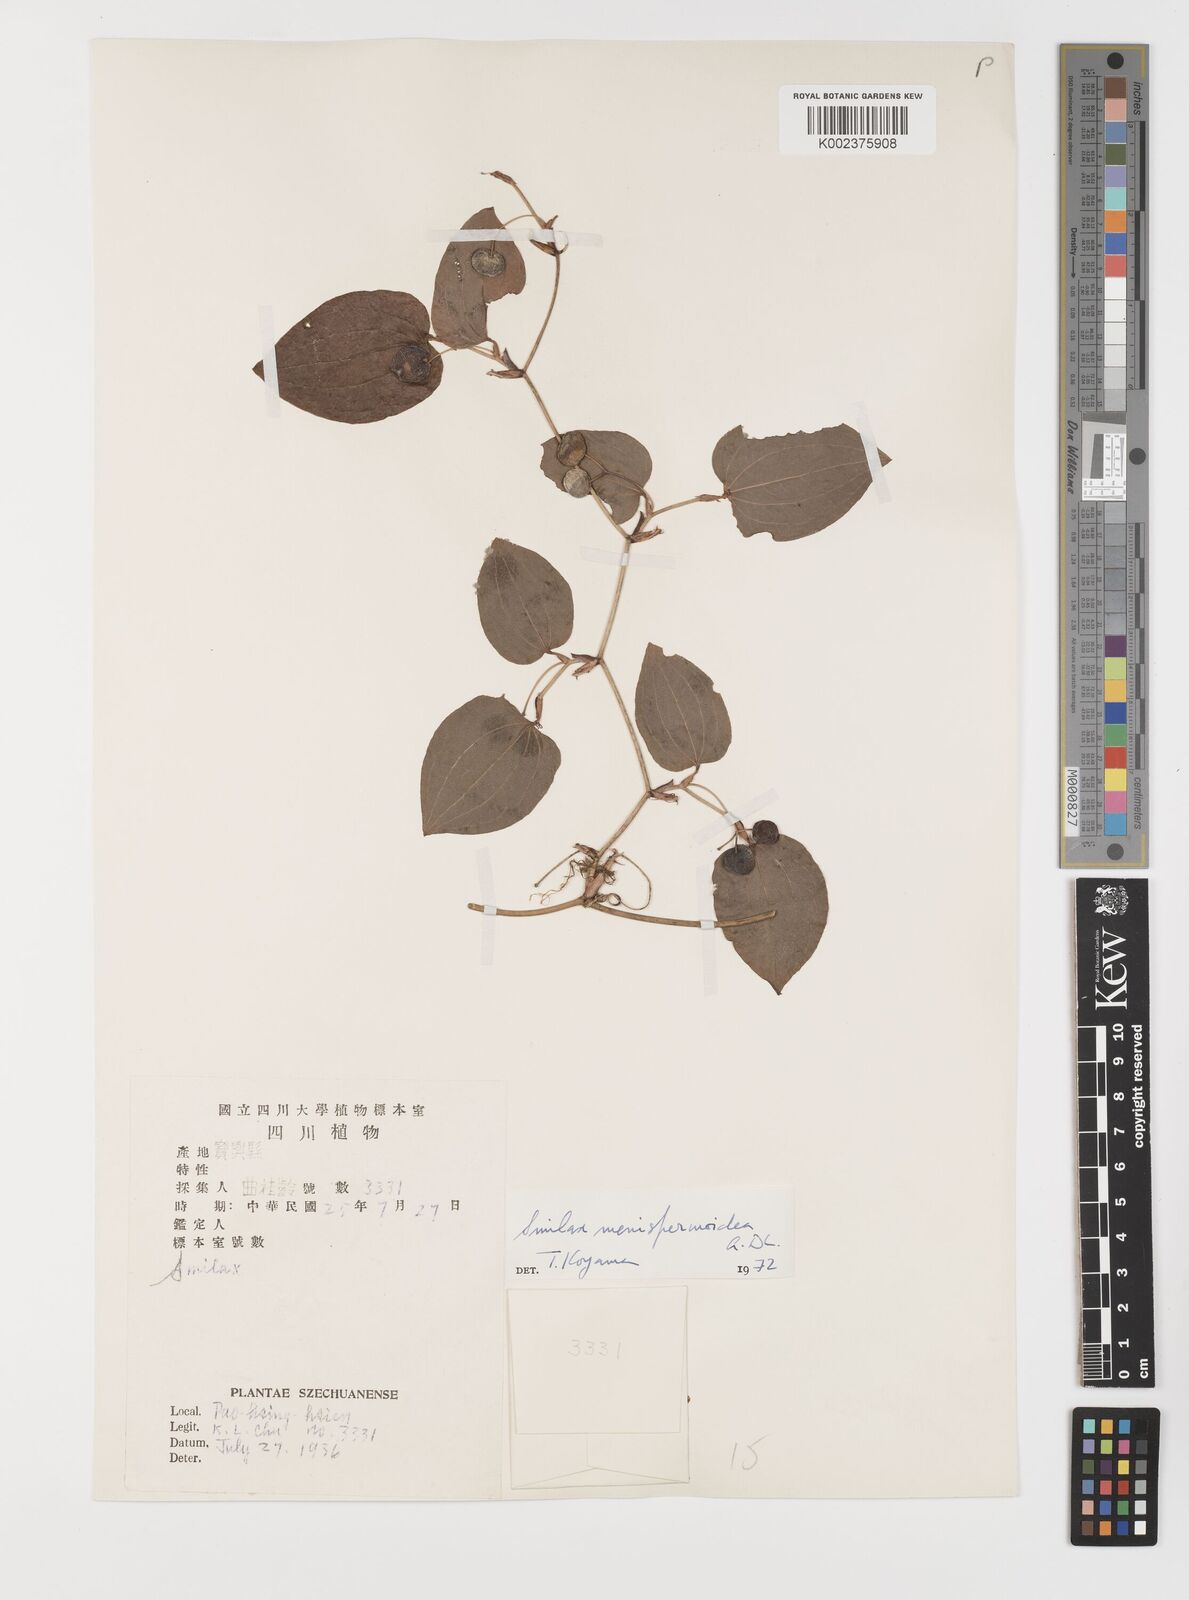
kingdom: Plantae
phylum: Tracheophyta
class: Liliopsida
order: Liliales
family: Smilacaceae
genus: Smilax
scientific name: Smilax menispermoidea
